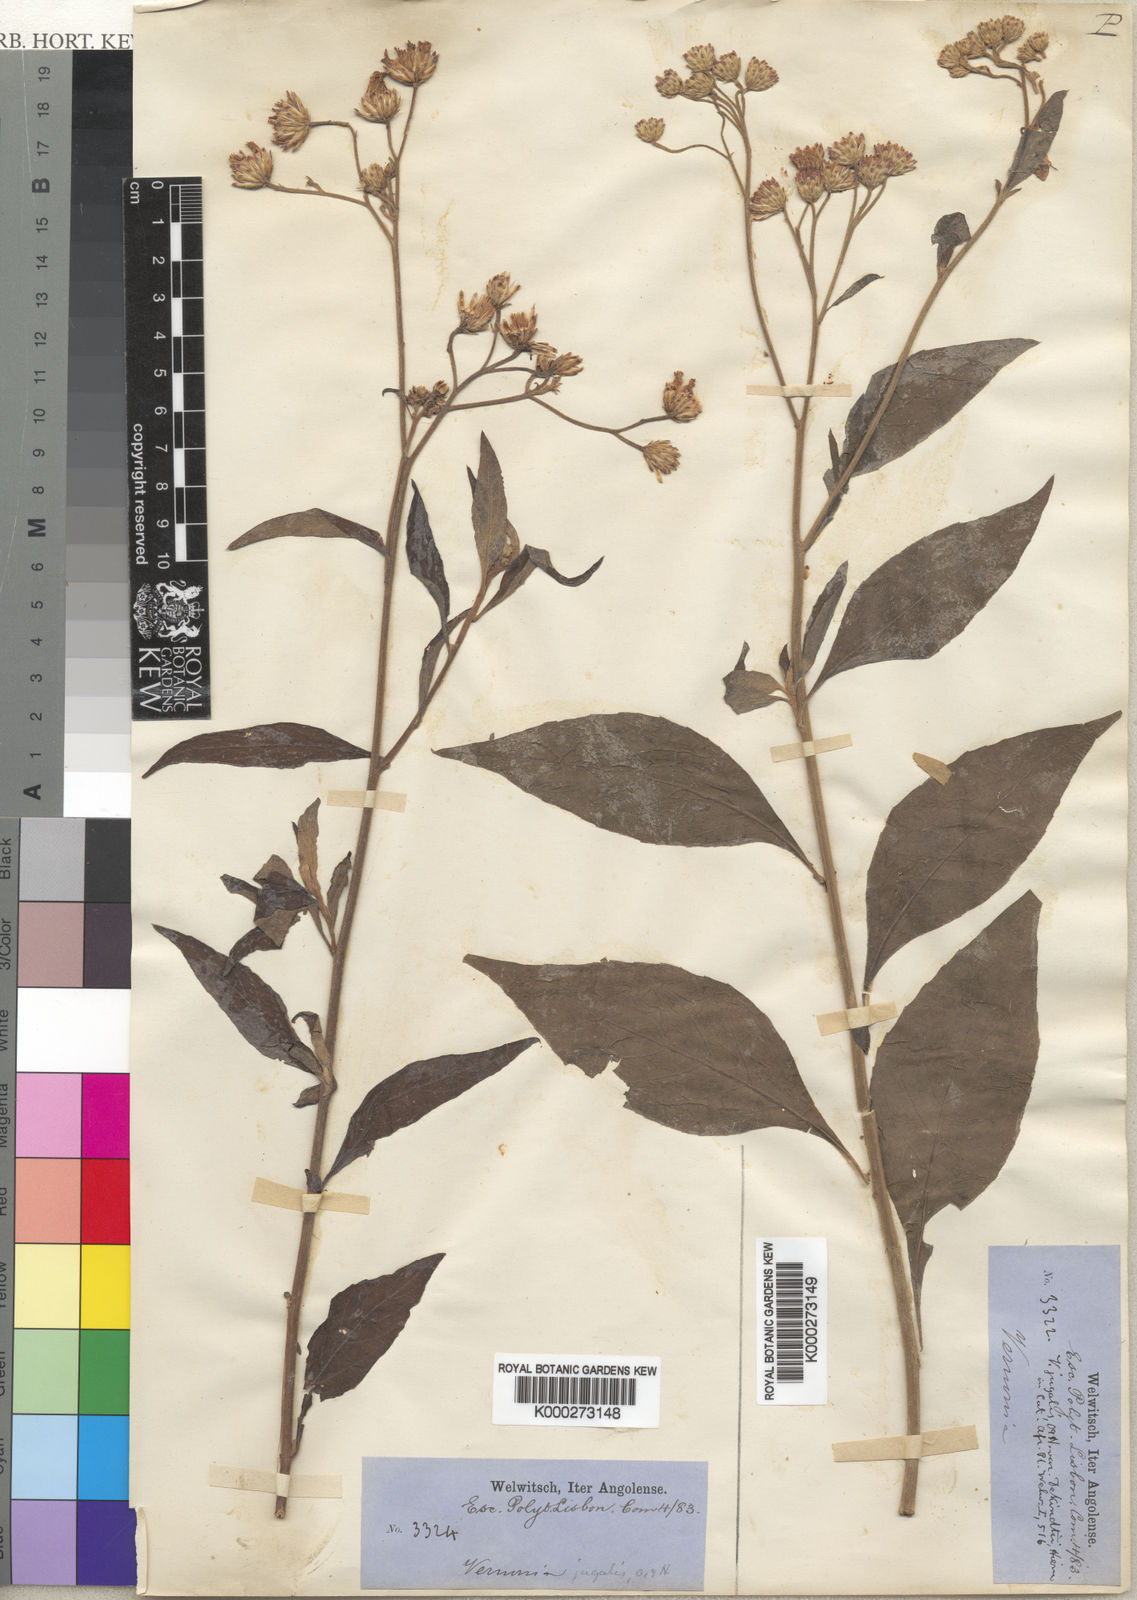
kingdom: Plantae
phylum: Tracheophyta
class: Magnoliopsida
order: Asterales
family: Asteraceae
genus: Ambassa
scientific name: Ambassa hochstetteri
